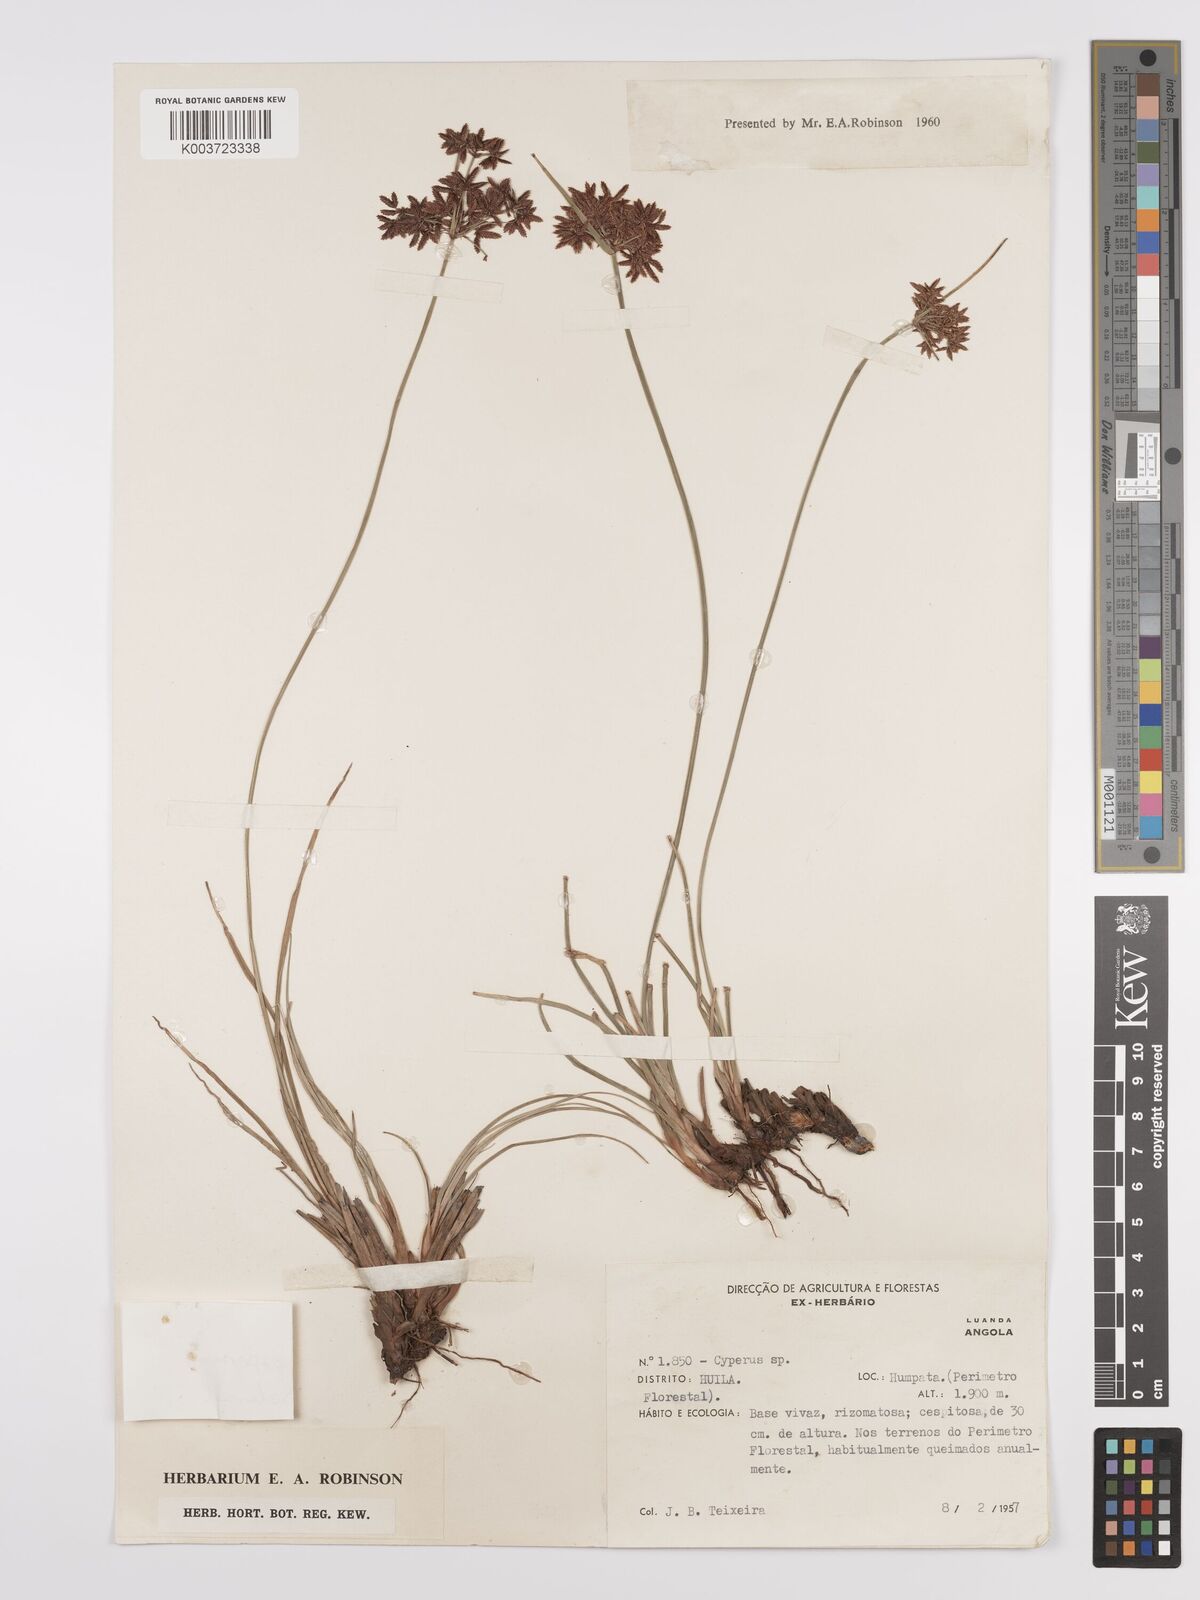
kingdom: Plantae
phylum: Tracheophyta
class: Liliopsida
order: Poales
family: Cyperaceae
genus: Cyperus
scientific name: Cyperus denudatus
